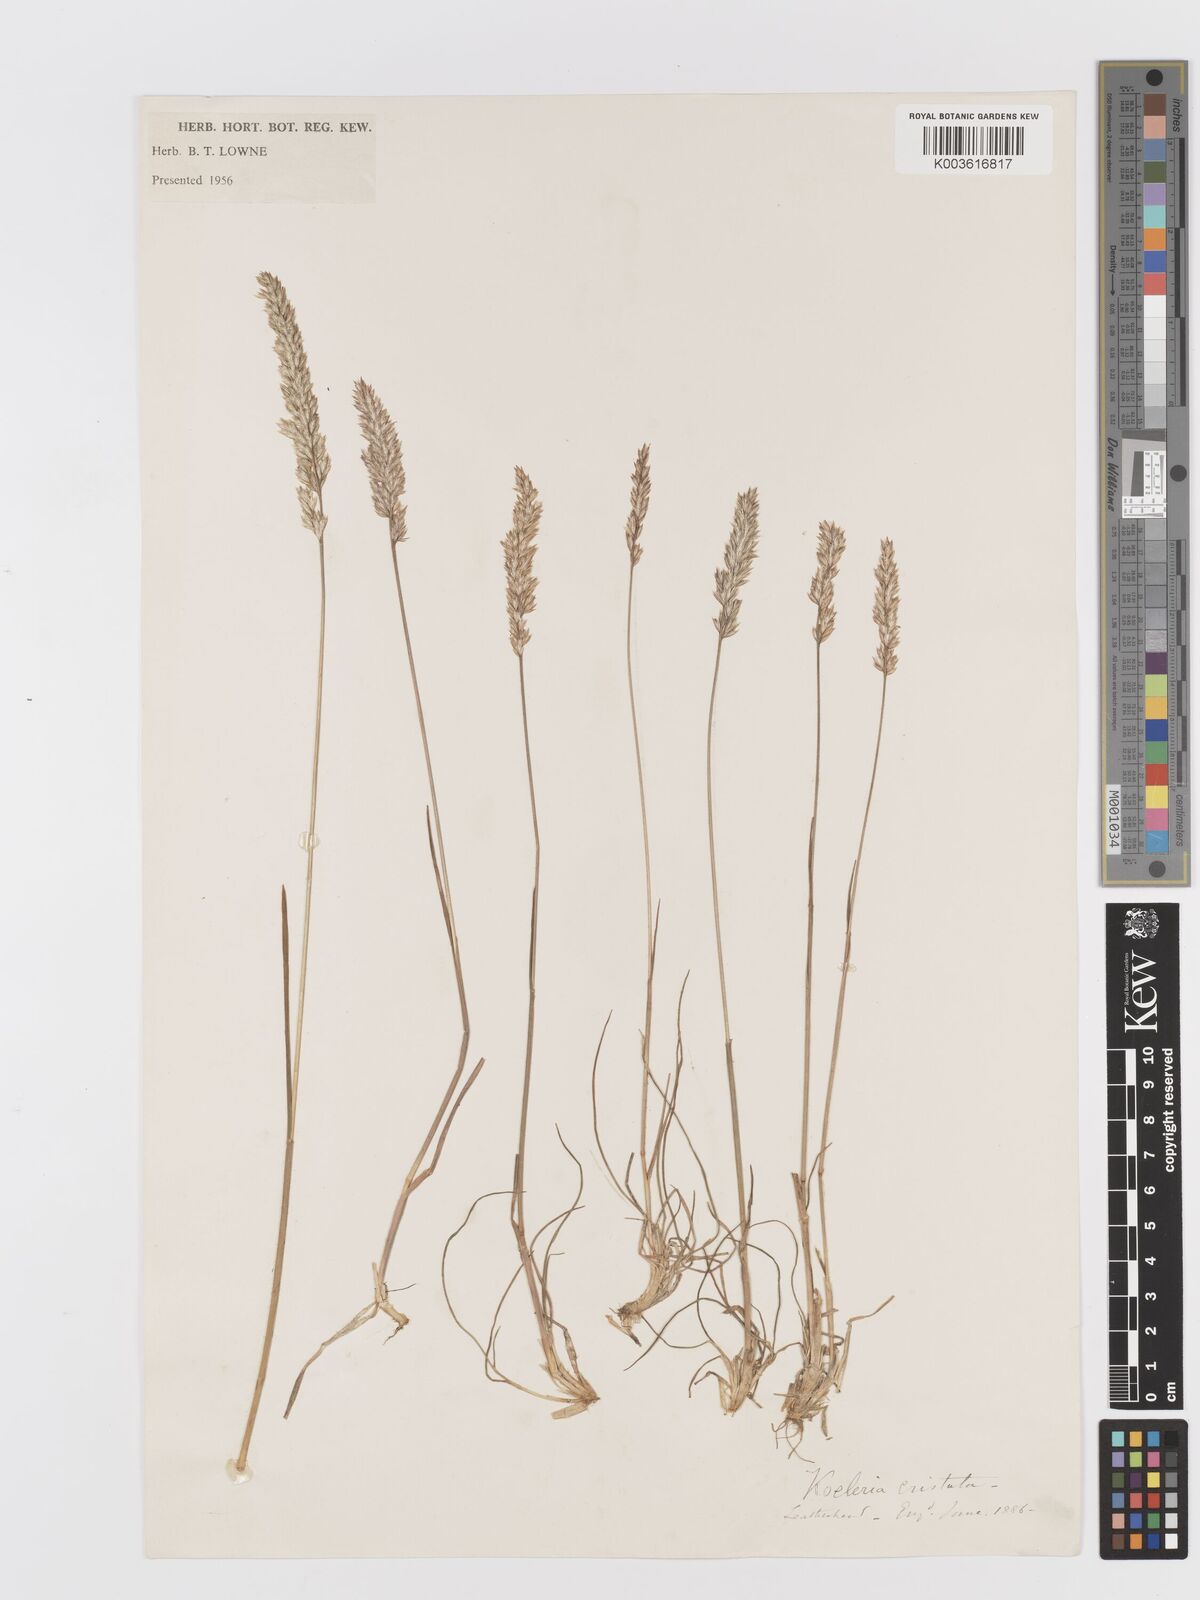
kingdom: Plantae
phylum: Tracheophyta
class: Liliopsida
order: Poales
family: Poaceae
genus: Koeleria
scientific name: Koeleria macrantha
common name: Crested hair-grass
